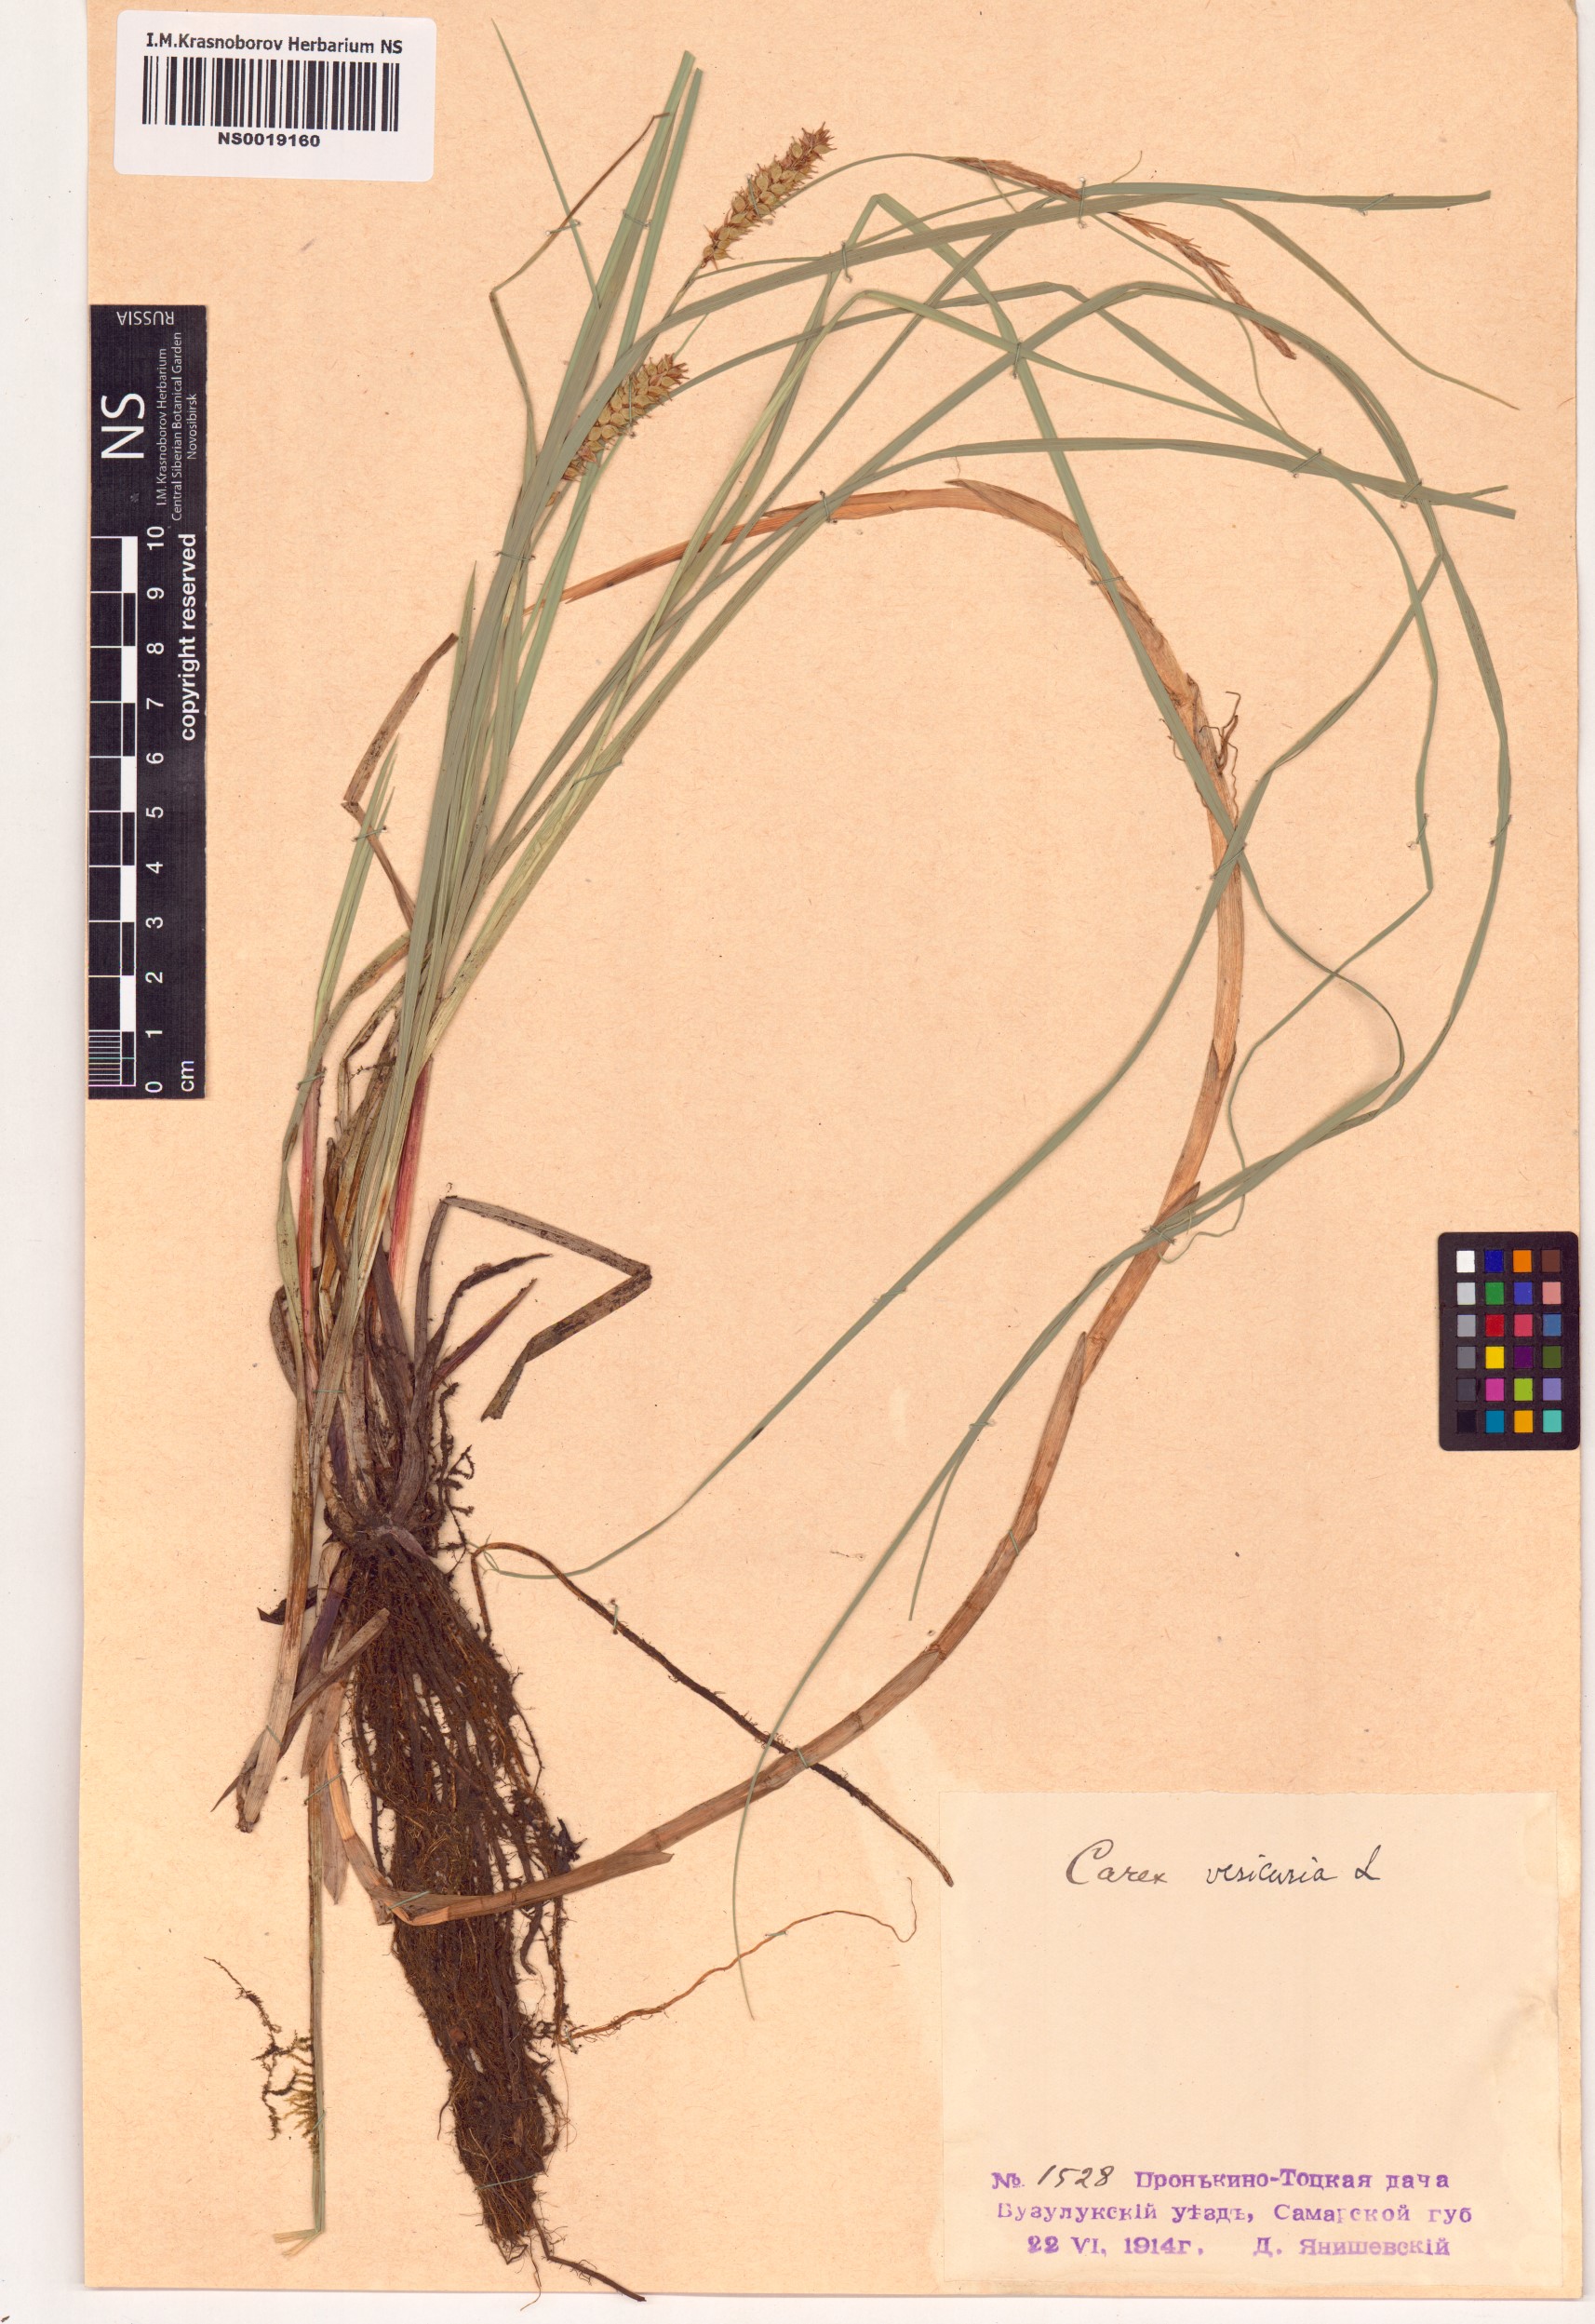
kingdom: Plantae
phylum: Tracheophyta
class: Liliopsida
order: Poales
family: Cyperaceae
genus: Carex
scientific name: Carex vesicaria
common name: Bladder-sedge
